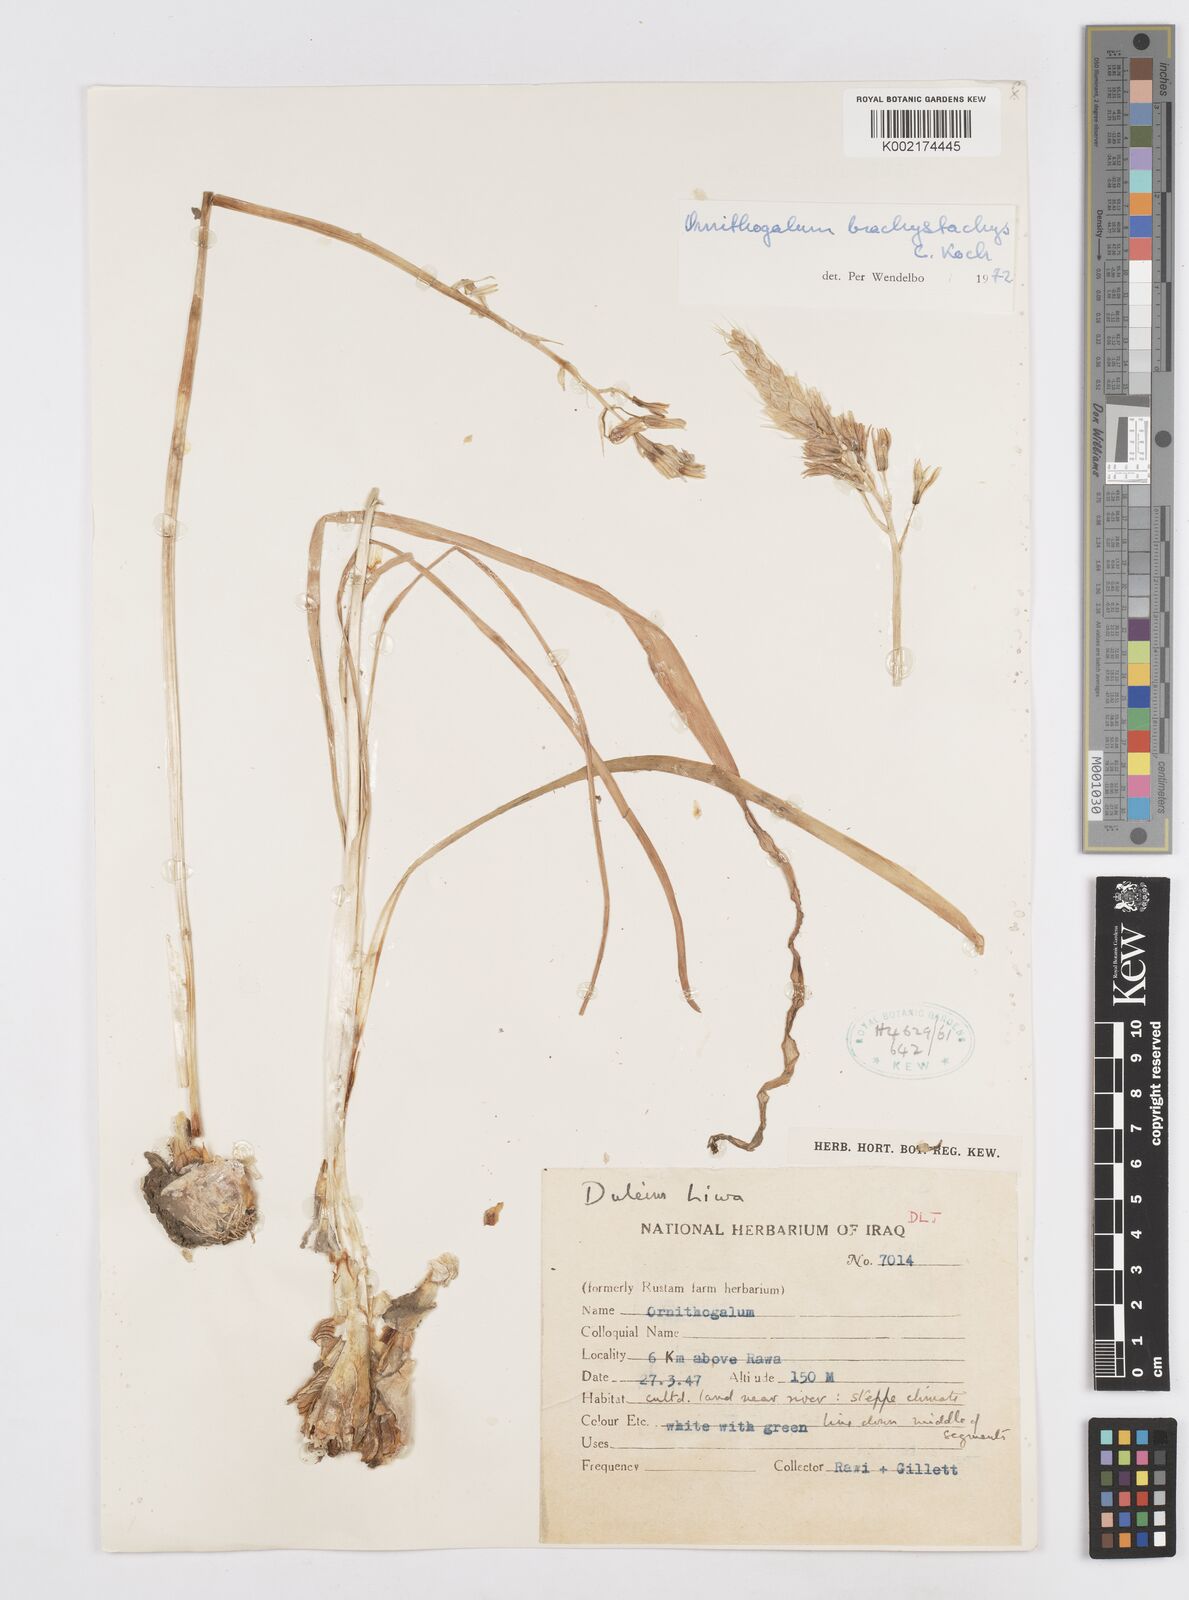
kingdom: Plantae
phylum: Tracheophyta
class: Liliopsida
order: Asparagales
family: Asparagaceae
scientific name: Asparagaceae
